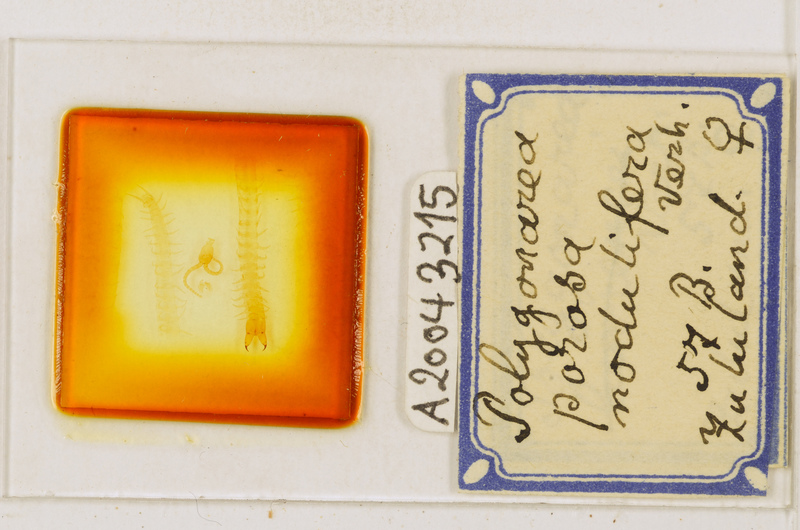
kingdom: Animalia
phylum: Arthropoda
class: Chilopoda
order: Geophilomorpha
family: Geophilidae
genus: Polygonarea
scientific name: Polygonarea africana
